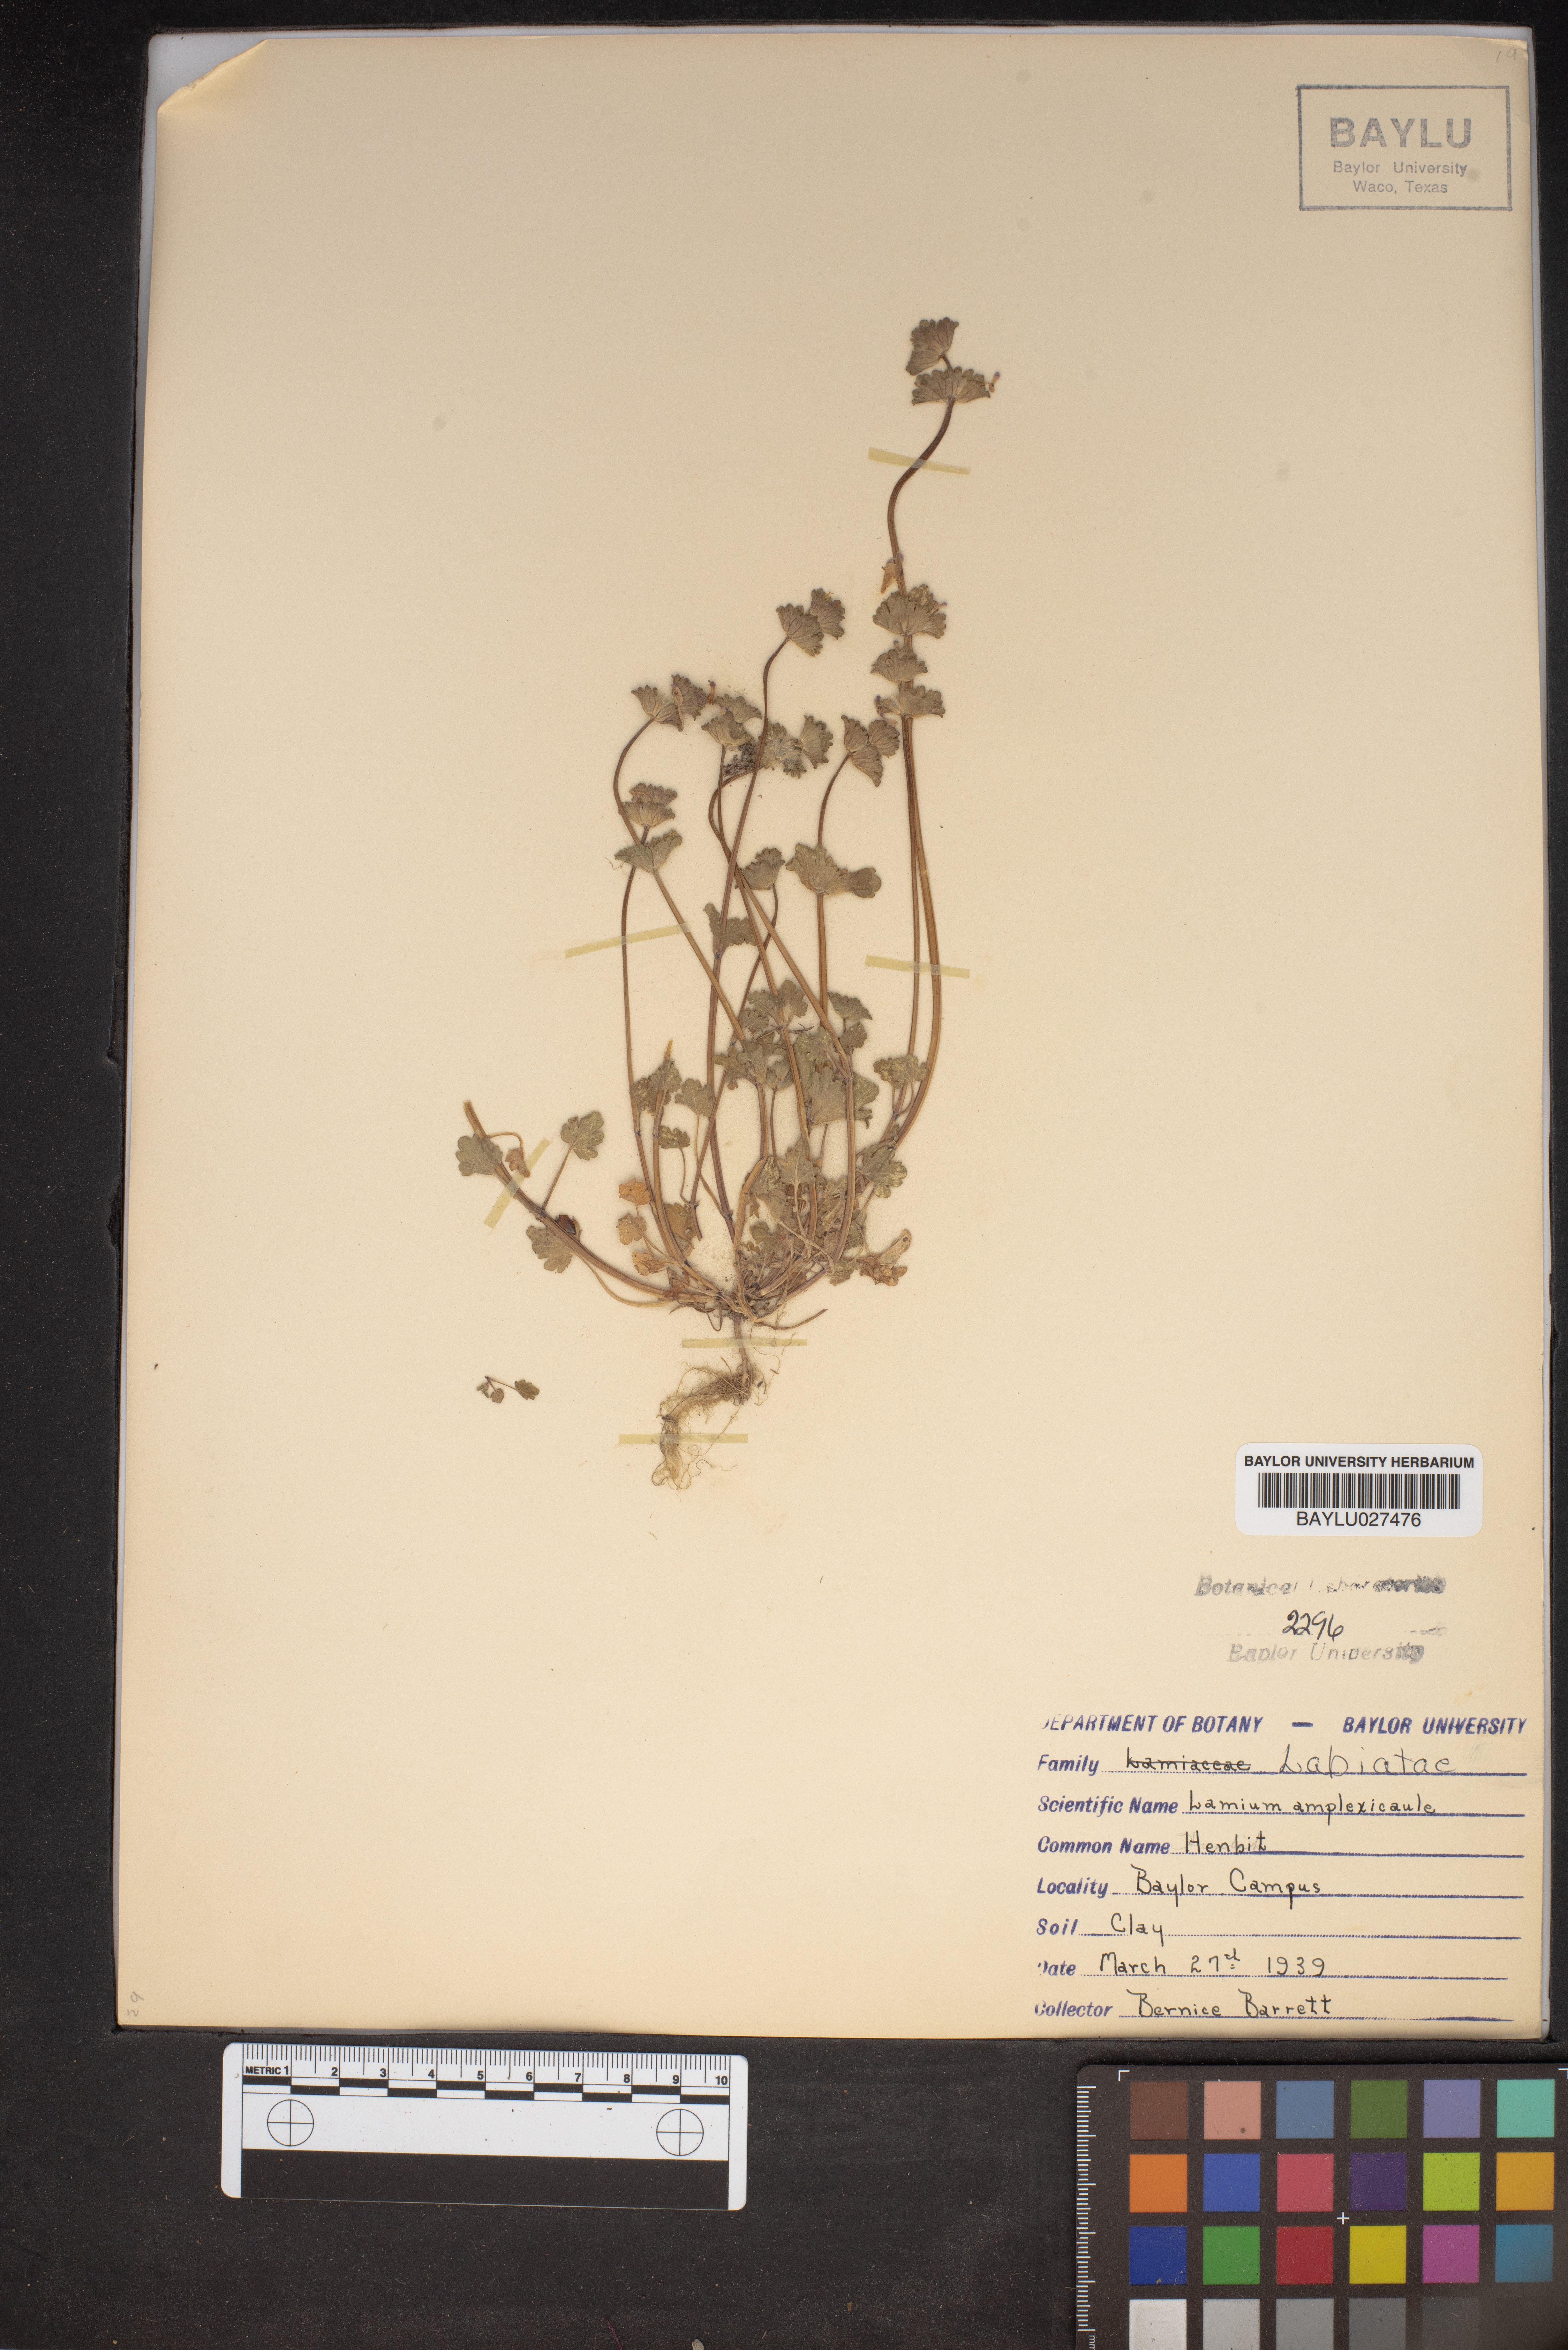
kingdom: Plantae
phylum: Tracheophyta
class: Magnoliopsida
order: Lamiales
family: Lamiaceae
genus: Lamium
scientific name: Lamium amplexicaule
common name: Henbit dead-nettle
